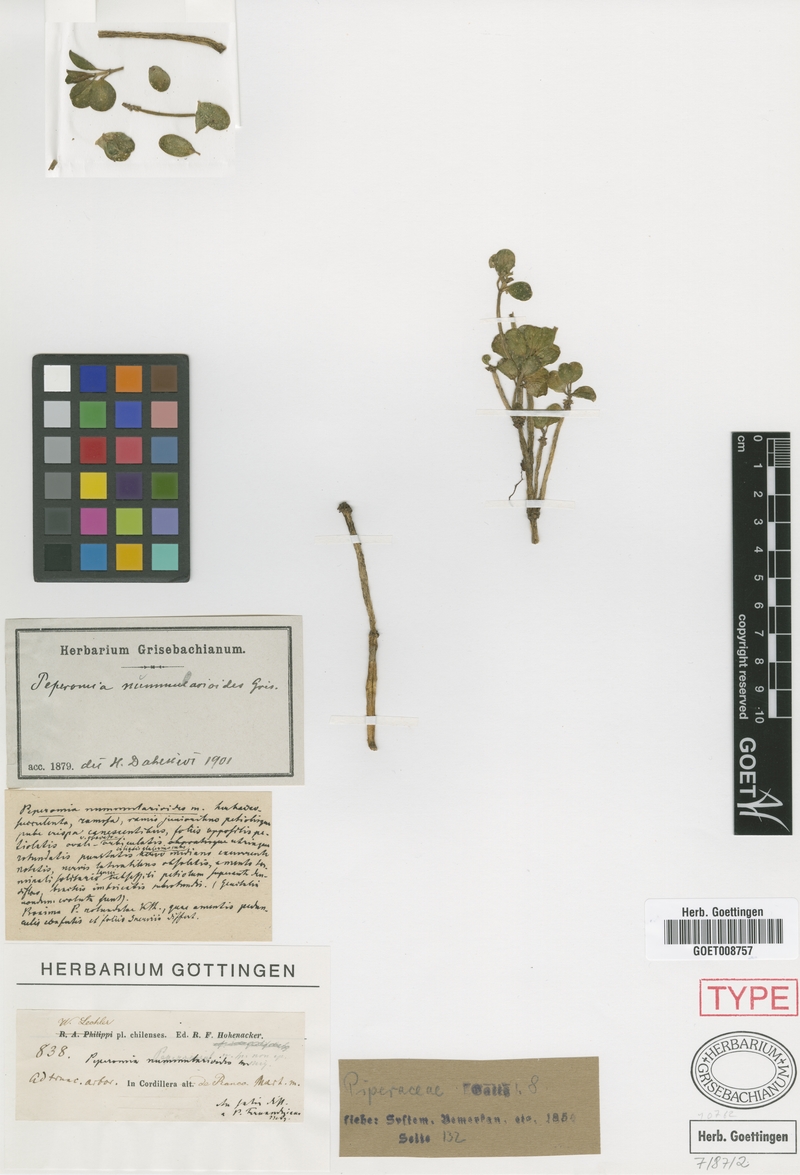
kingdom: Plantae
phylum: Tracheophyta
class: Magnoliopsida
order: Piperales
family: Piperaceae
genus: Peperomia
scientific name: Peperomia nummularioides
